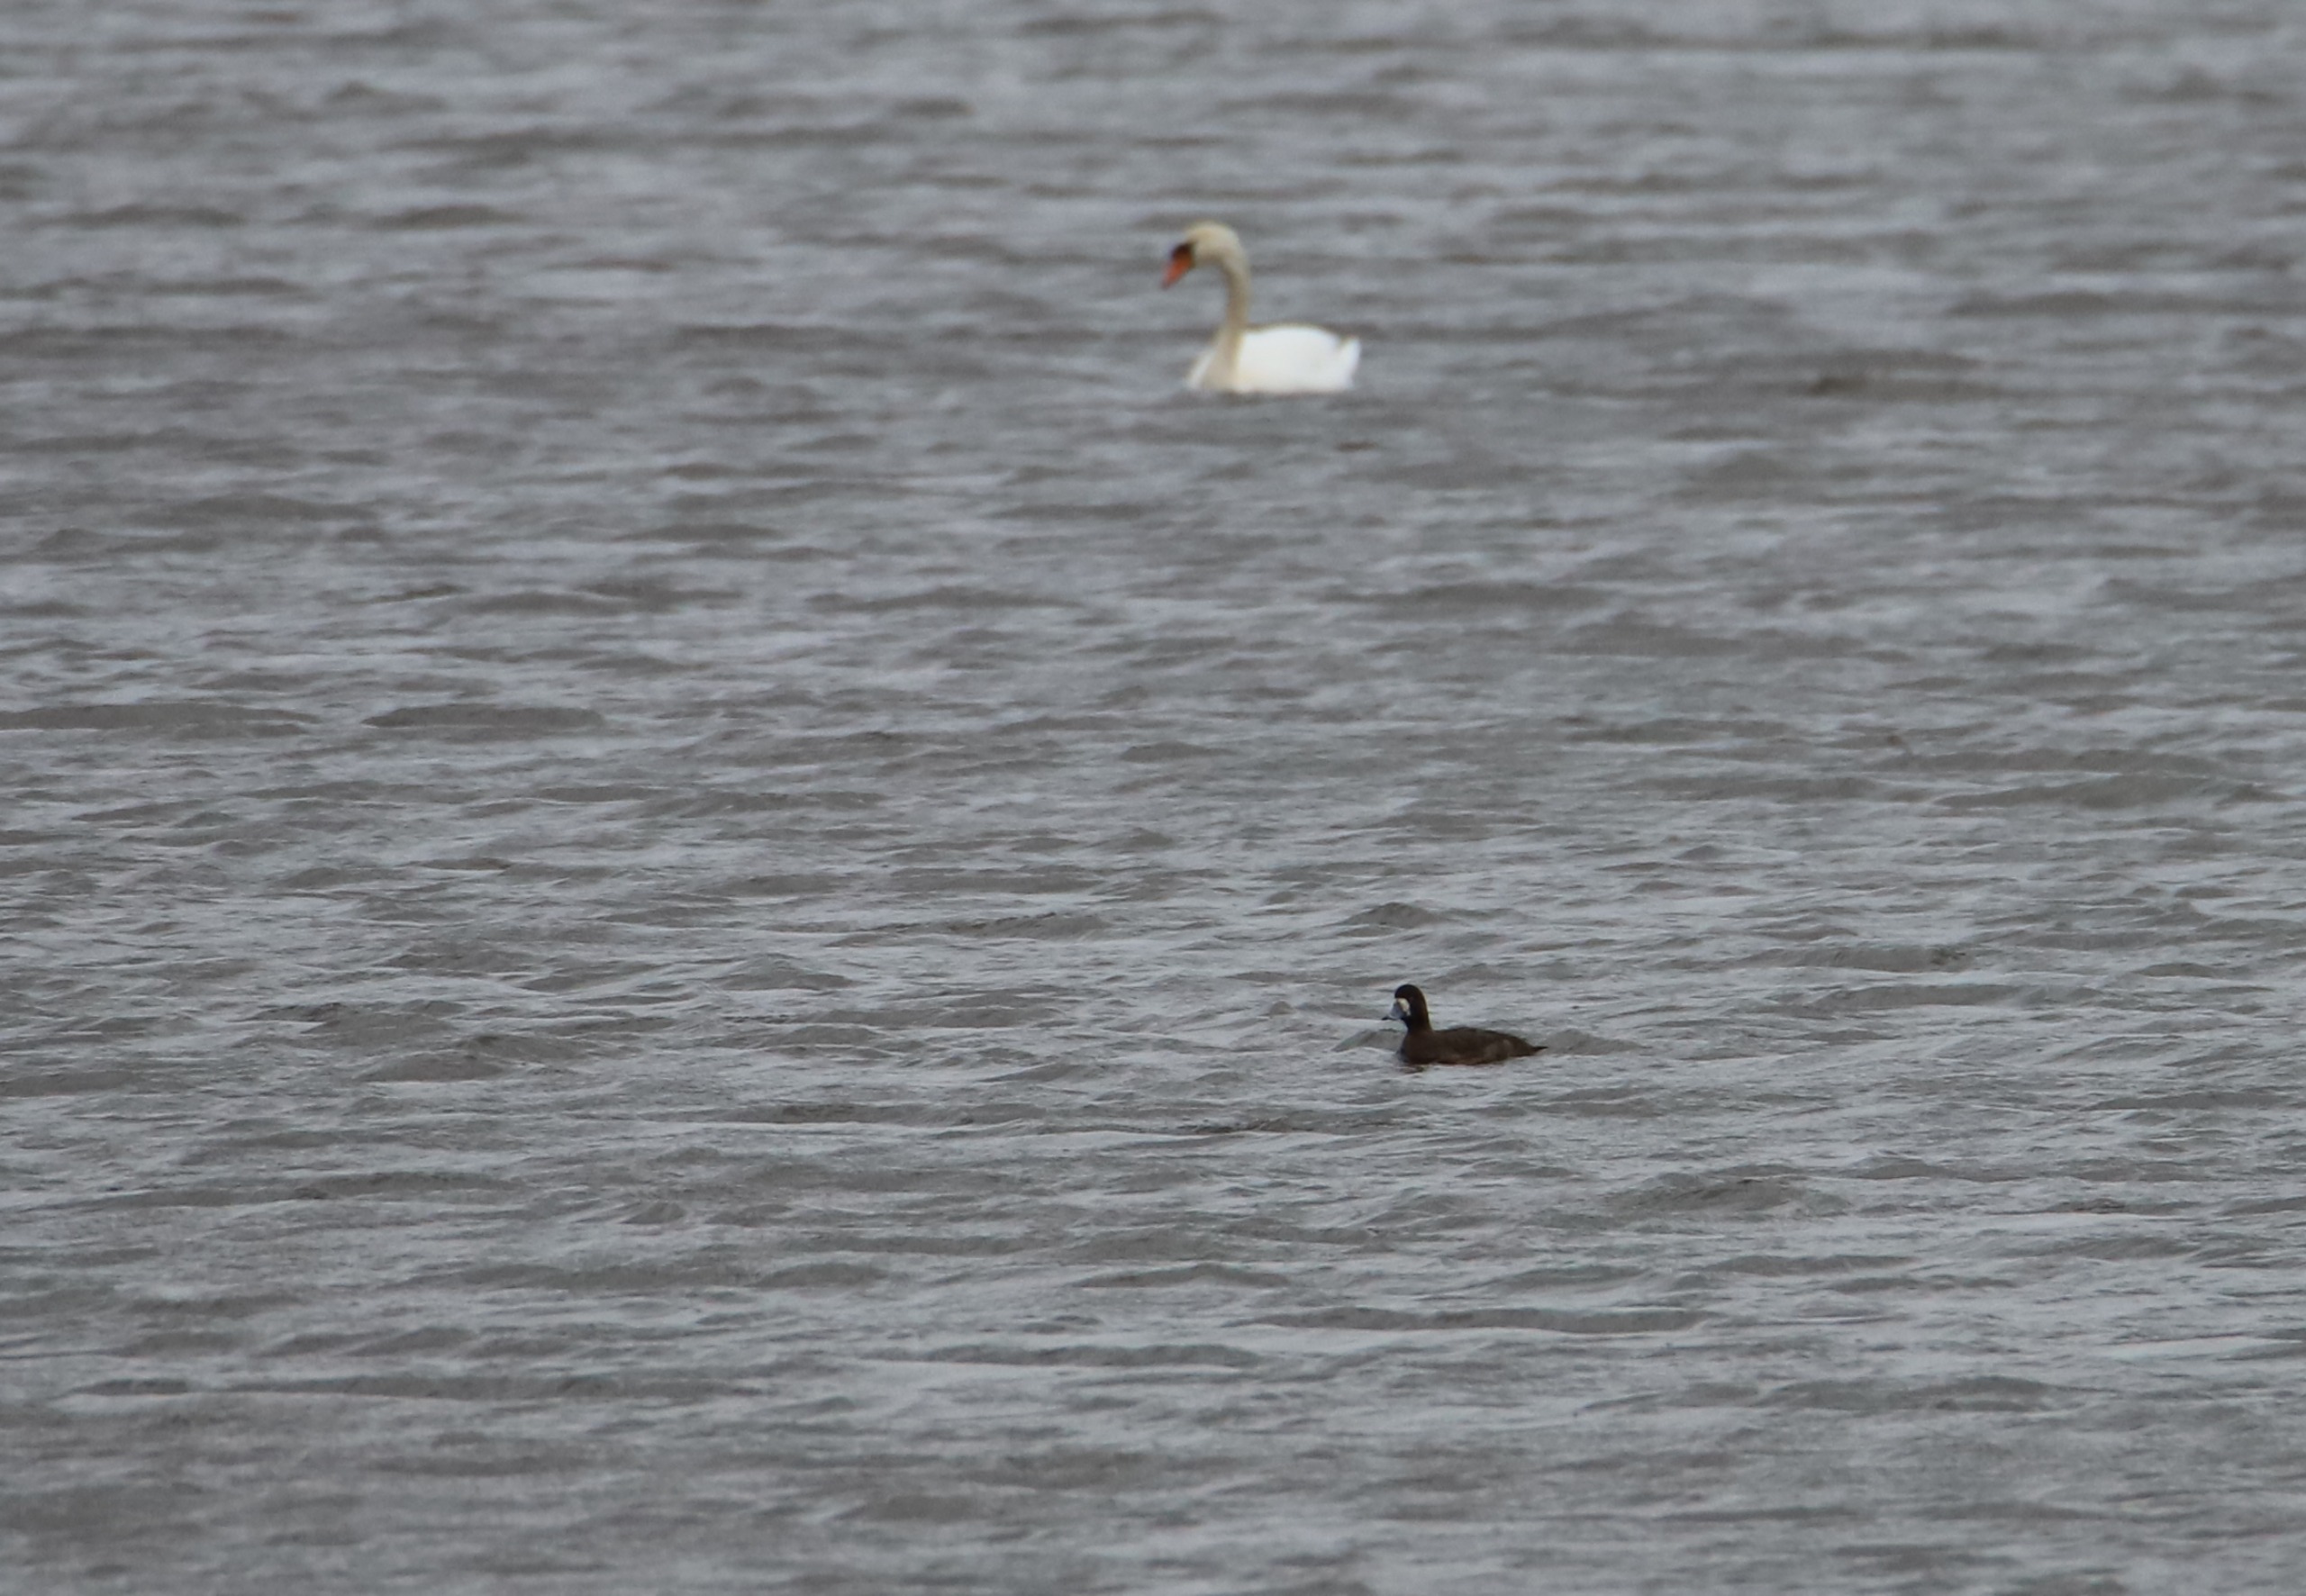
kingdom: Animalia
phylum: Chordata
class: Aves
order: Anseriformes
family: Anatidae
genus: Aythya
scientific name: Aythya marila
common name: Bjergand
